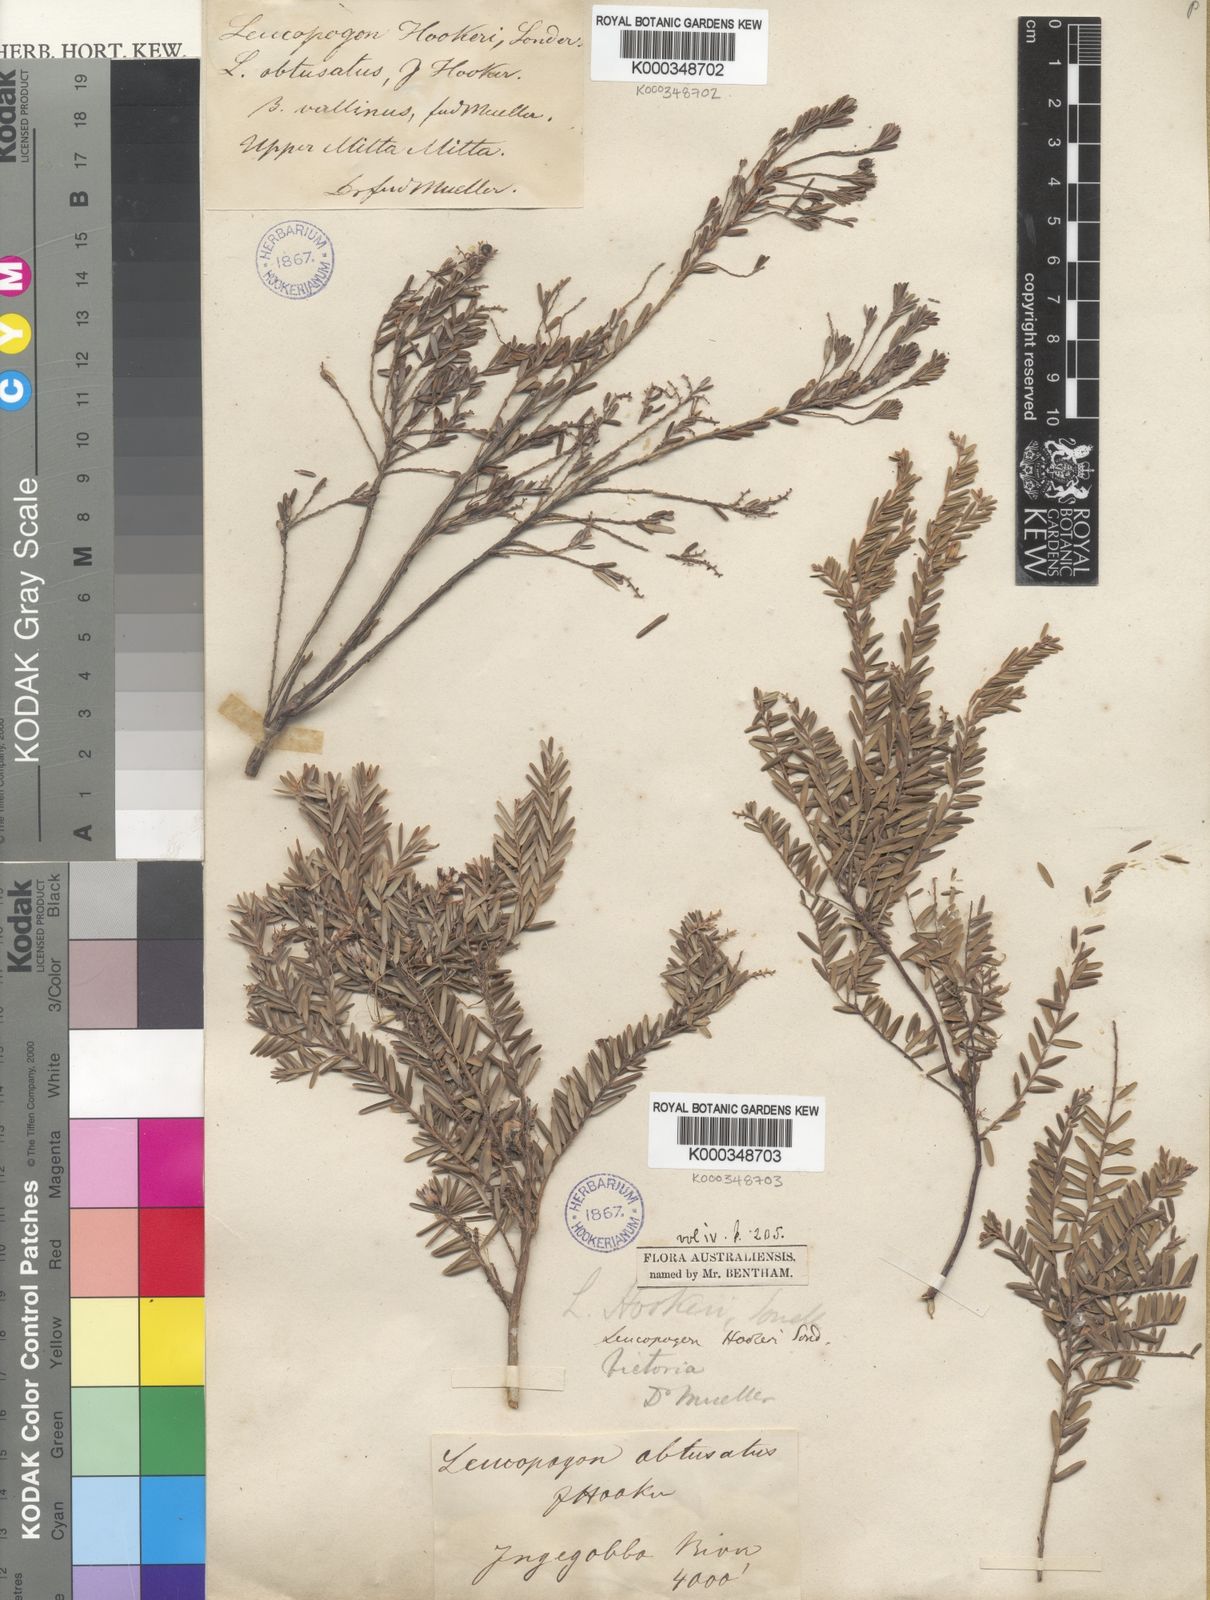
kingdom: Plantae
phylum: Tracheophyta
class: Magnoliopsida
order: Ericales
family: Ericaceae
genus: Acrothamnus
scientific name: Acrothamnus hookeri
